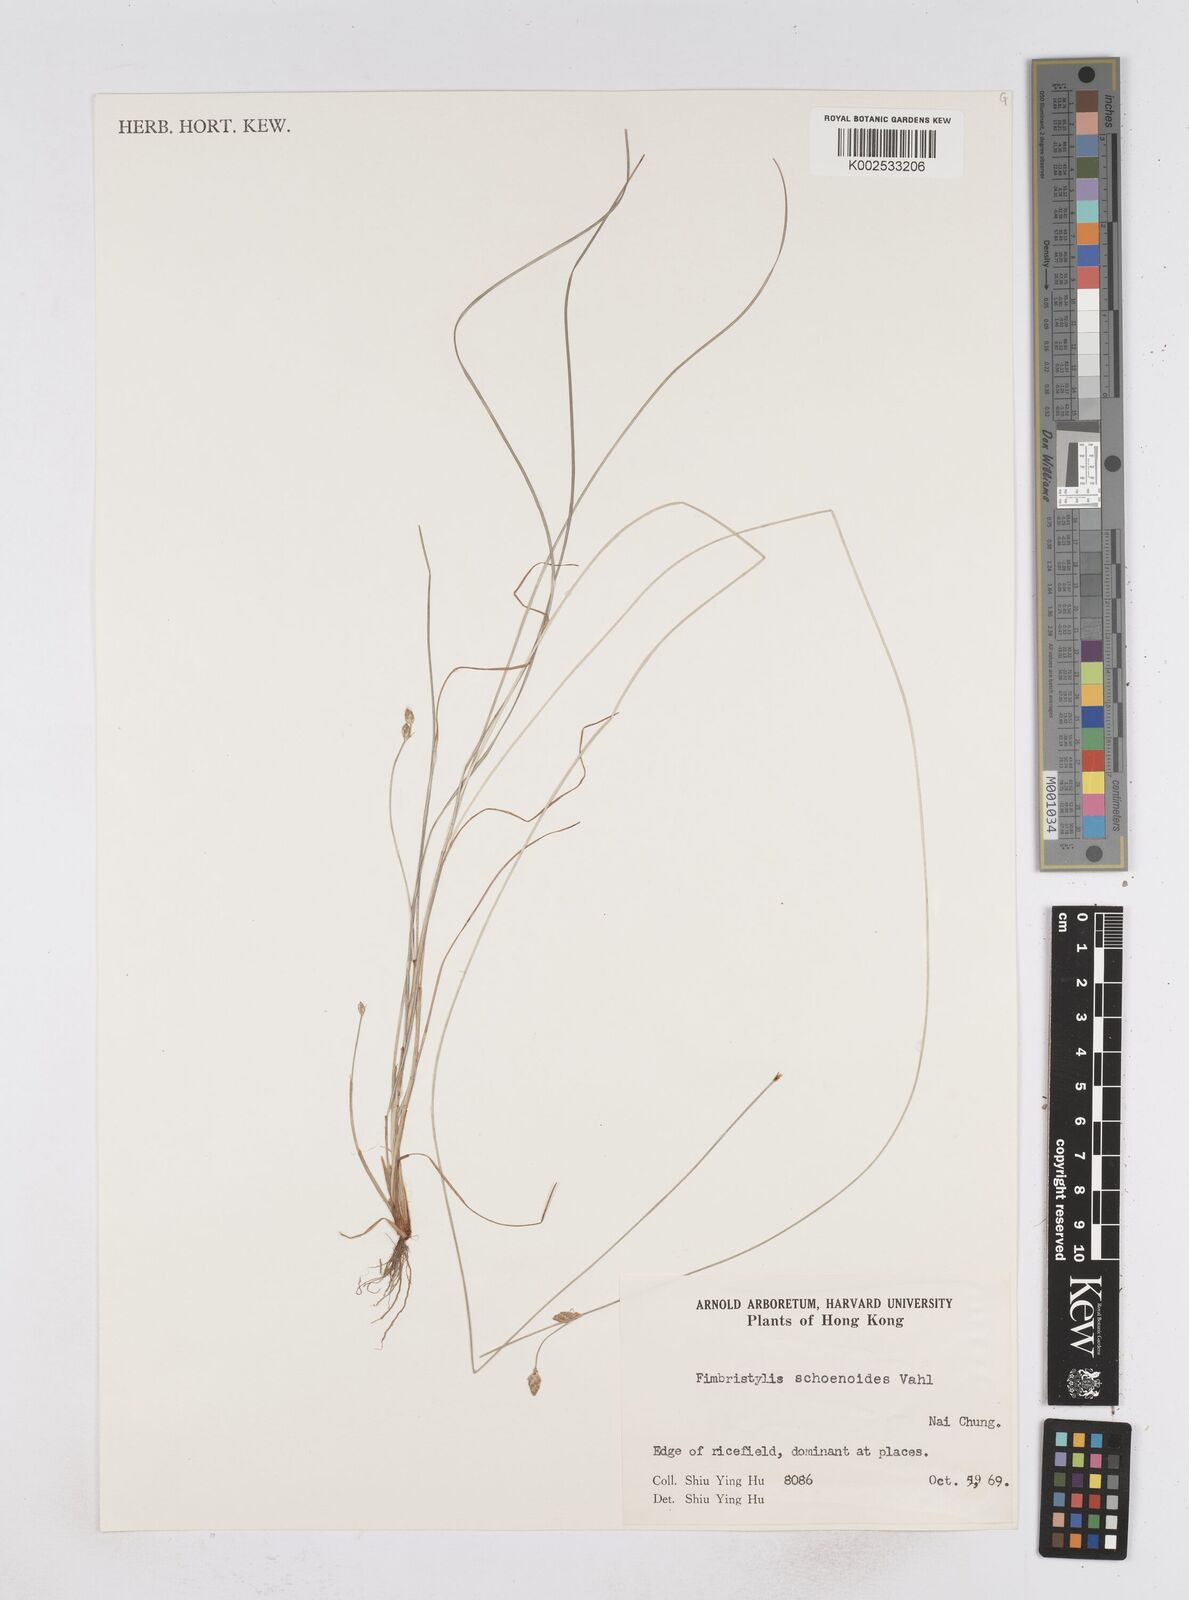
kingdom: Plantae
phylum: Tracheophyta
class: Liliopsida
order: Poales
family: Cyperaceae
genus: Fimbristylis
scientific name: Fimbristylis schoenoides
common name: Ditch fimbry
